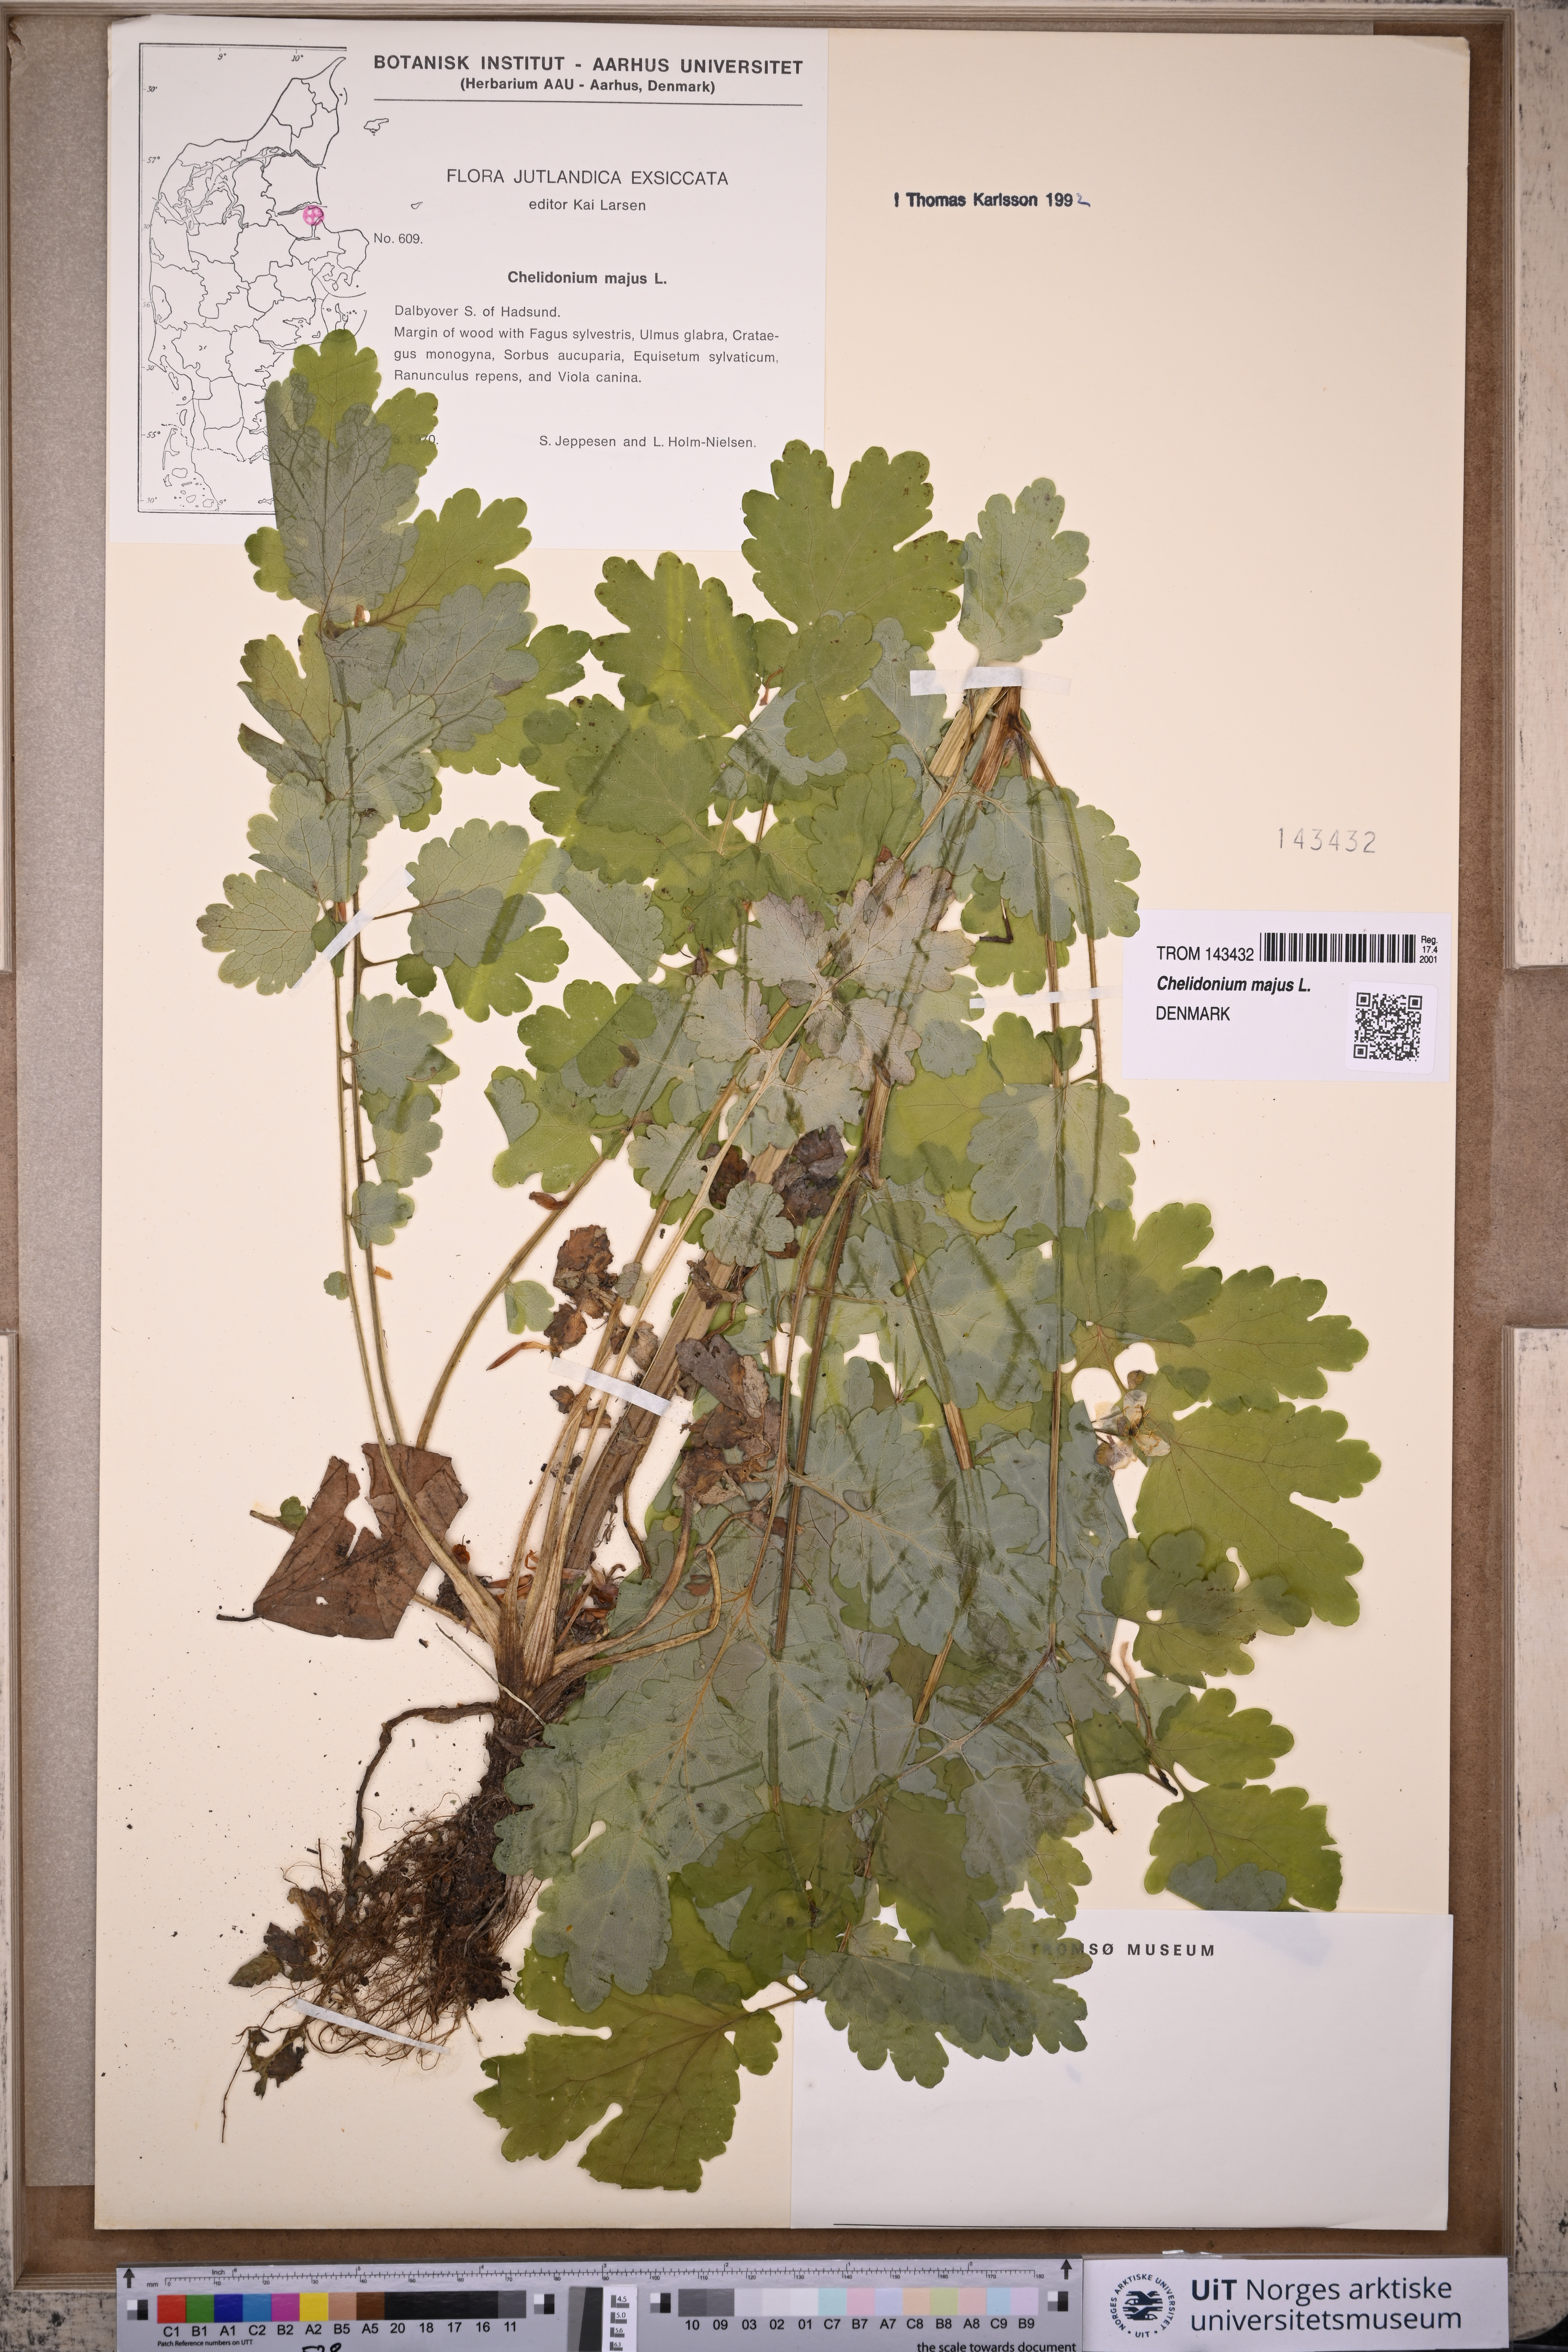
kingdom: Plantae
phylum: Tracheophyta
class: Magnoliopsida
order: Ranunculales
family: Papaveraceae
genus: Chelidonium
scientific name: Chelidonium majus
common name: Greater celandine
